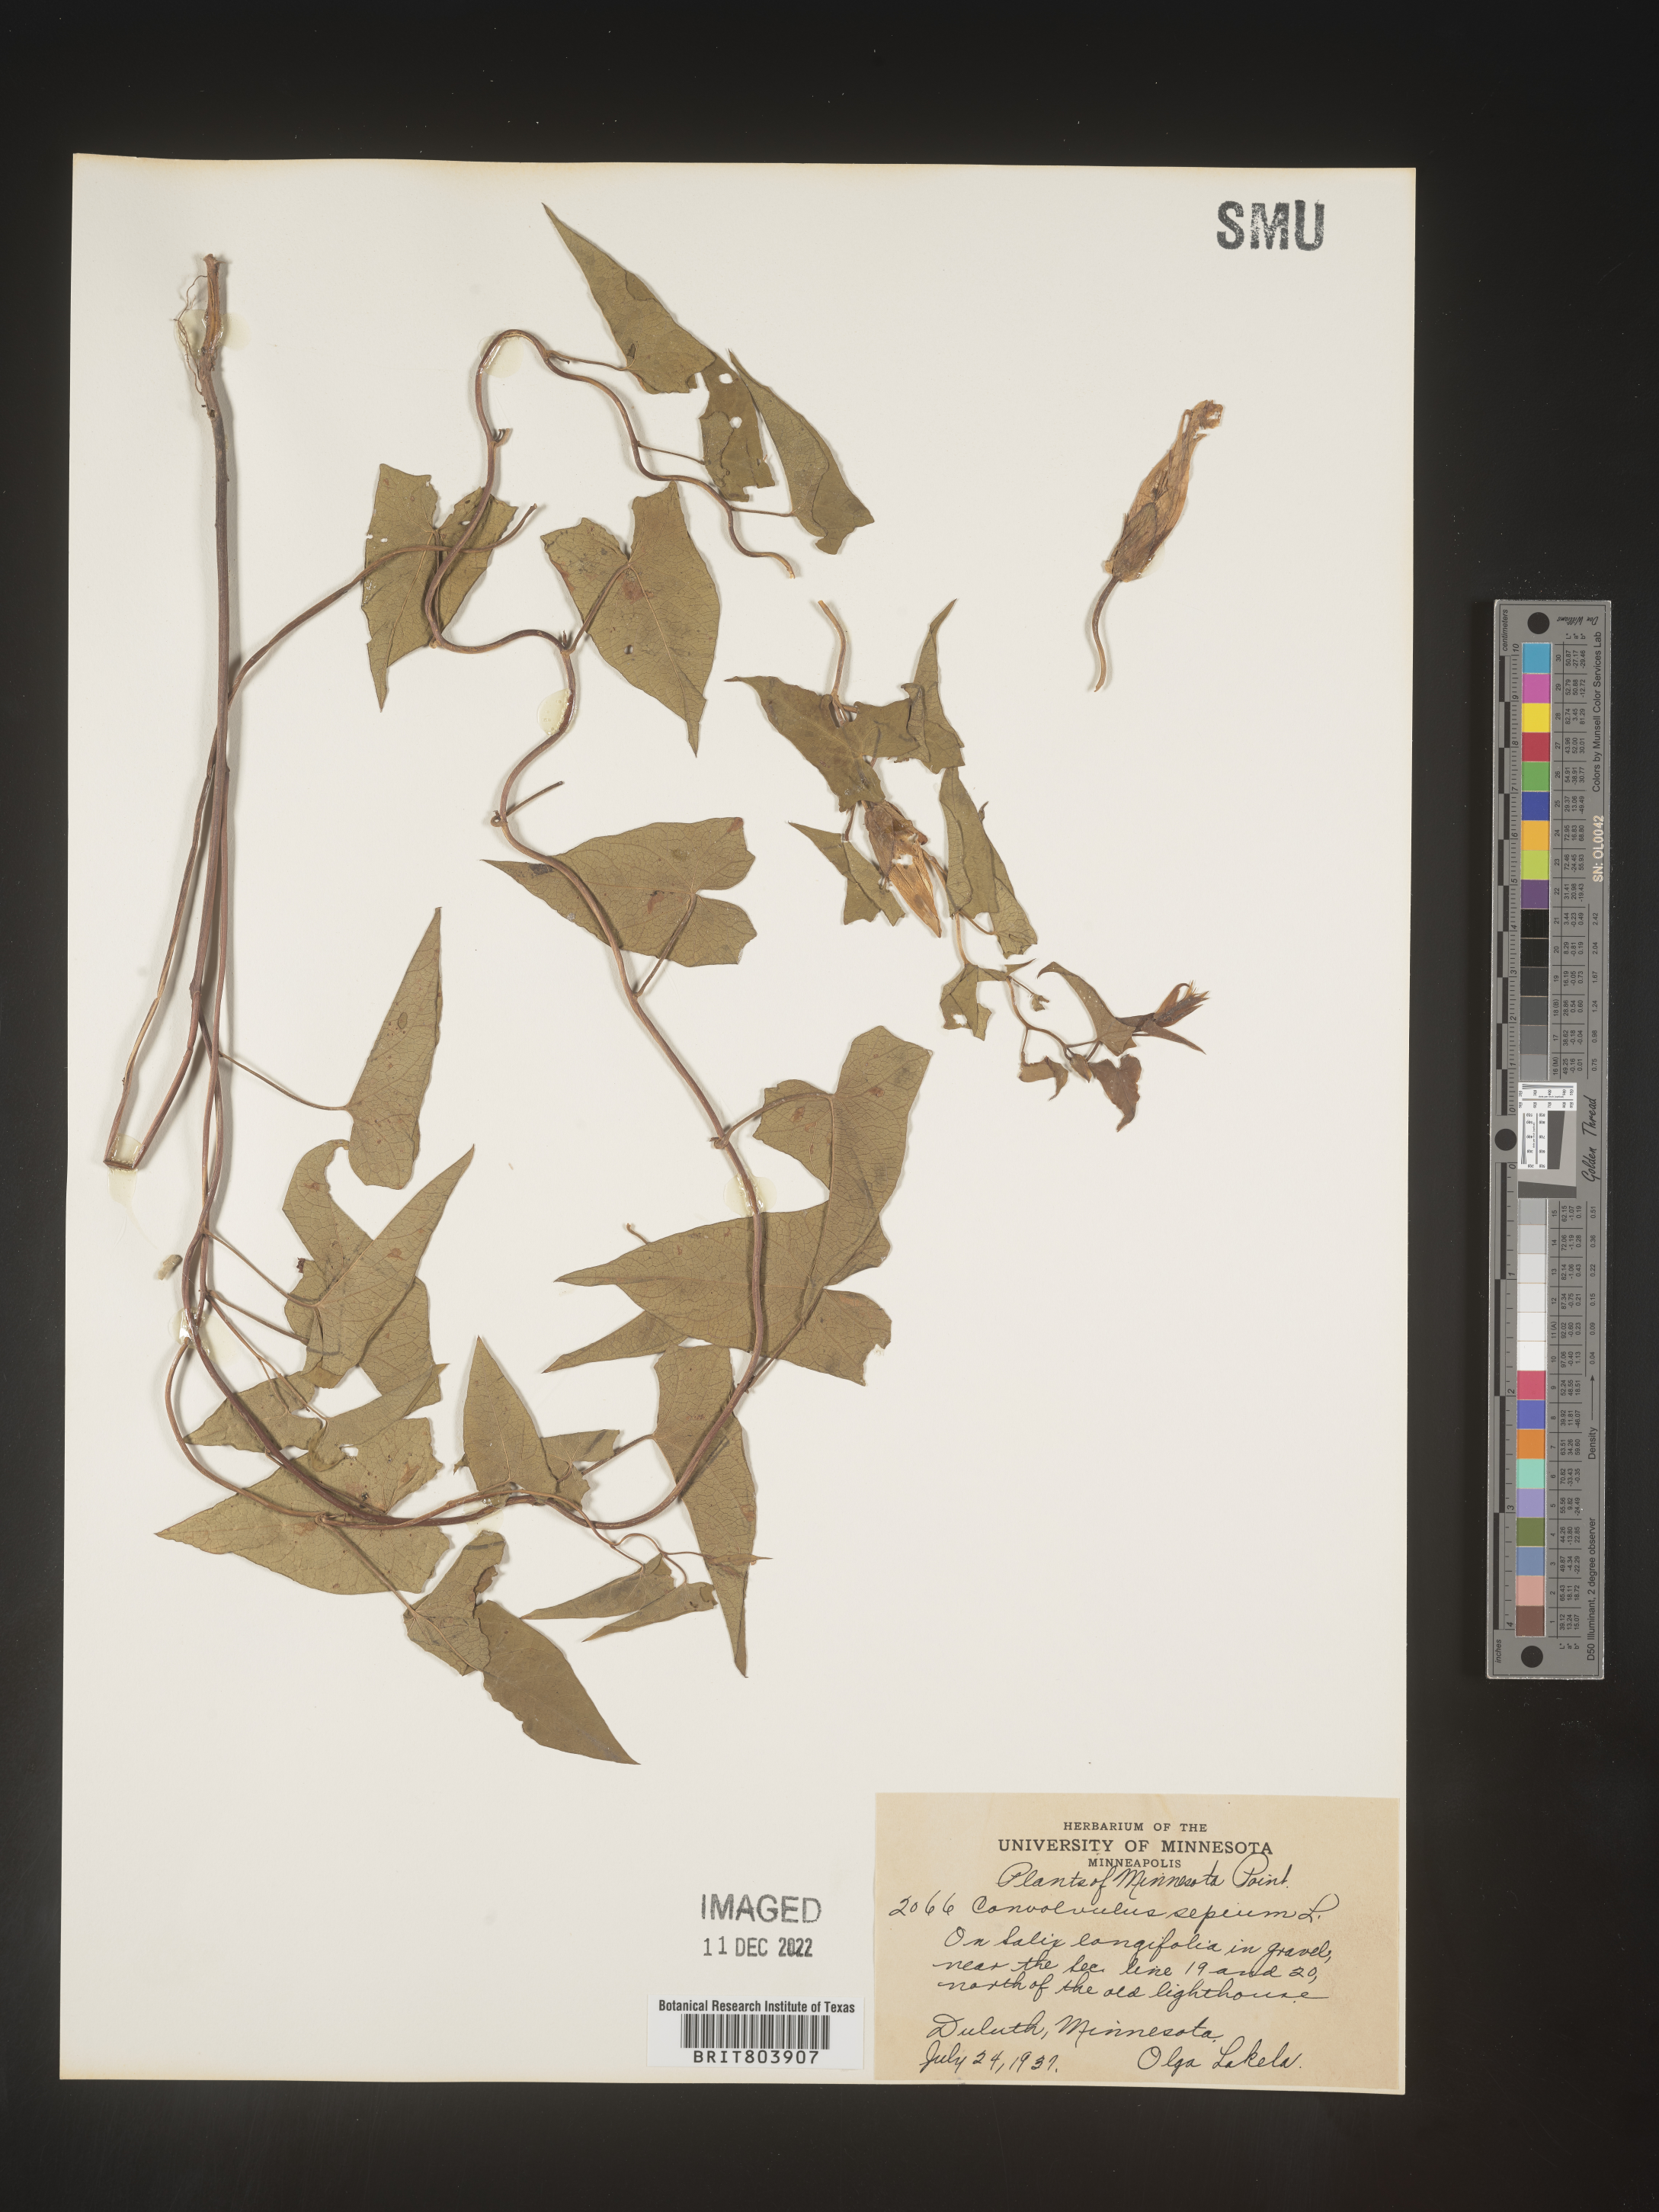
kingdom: Plantae
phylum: Tracheophyta
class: Magnoliopsida
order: Solanales
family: Convolvulaceae
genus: Calystegia
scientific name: Calystegia sepium
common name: Hedge bindweed
